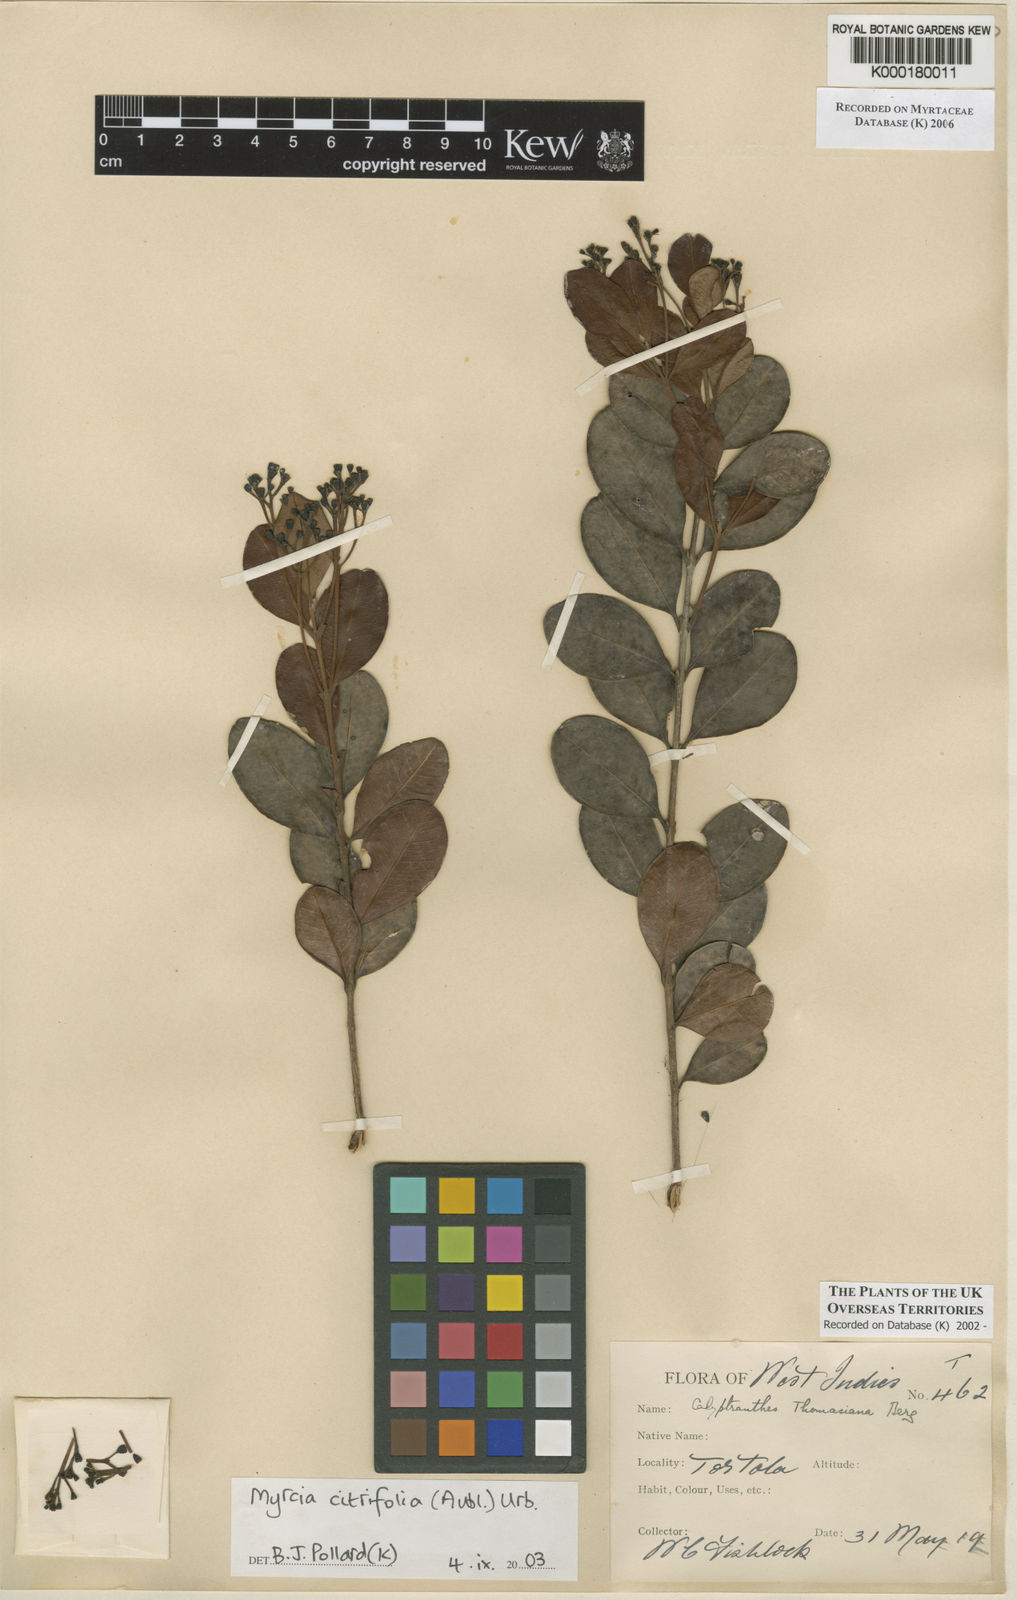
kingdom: Plantae
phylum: Tracheophyta
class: Magnoliopsida
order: Myrtales
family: Myrtaceae
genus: Myrcia
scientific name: Myrcia guianensis
